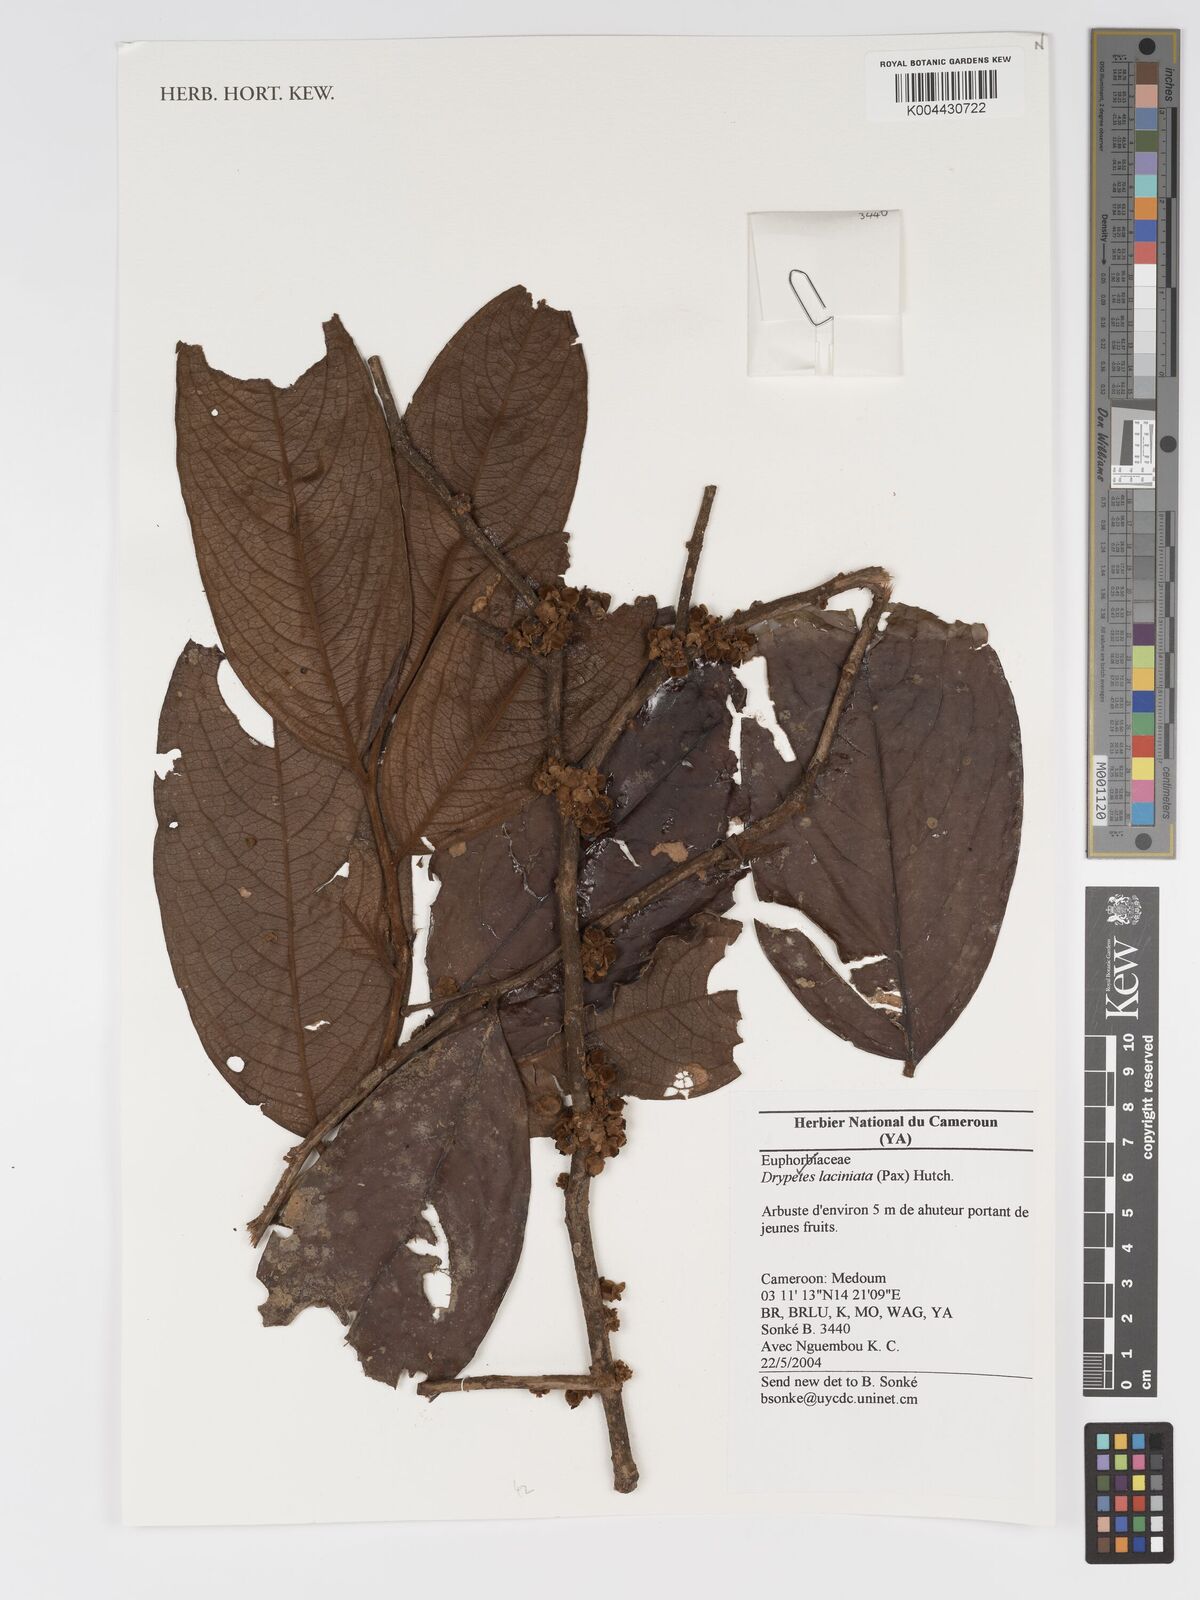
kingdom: Plantae
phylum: Tracheophyta
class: Magnoliopsida
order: Malpighiales
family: Putranjivaceae
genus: Drypetes
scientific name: Drypetes laciniata
